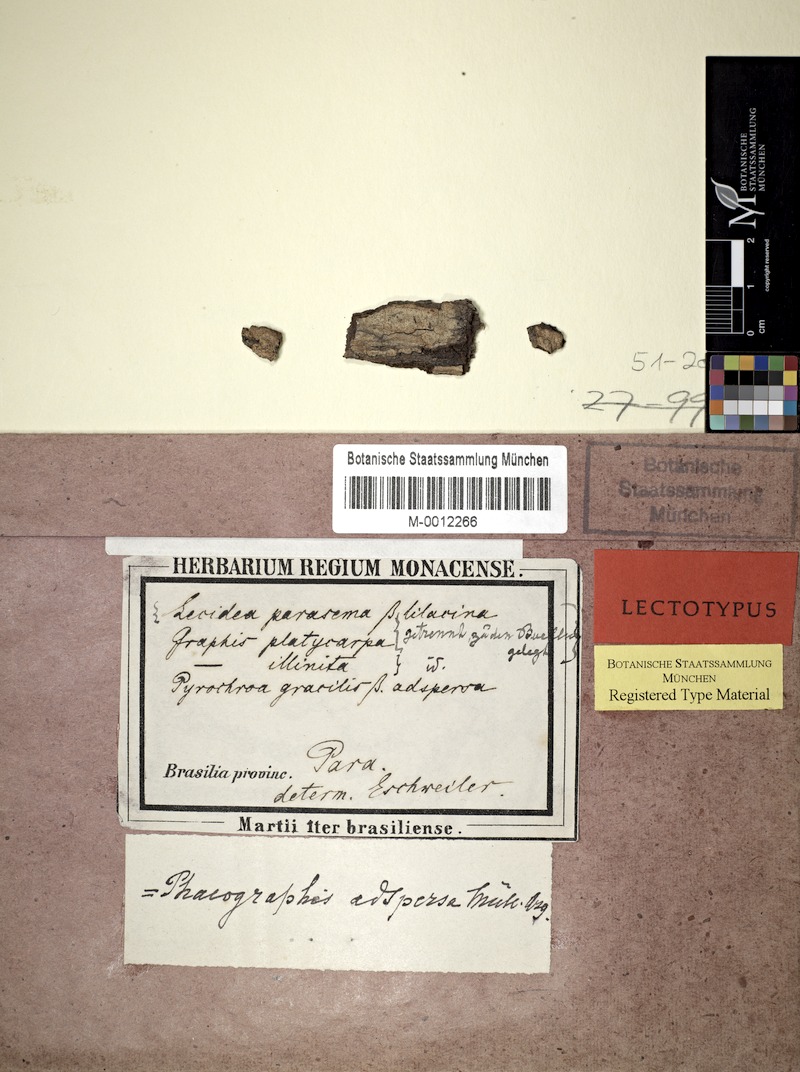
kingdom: Fungi
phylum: Ascomycota
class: Lecanoromycetes
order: Ostropales
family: Graphidaceae
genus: Phaeographis
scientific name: Phaeographis
